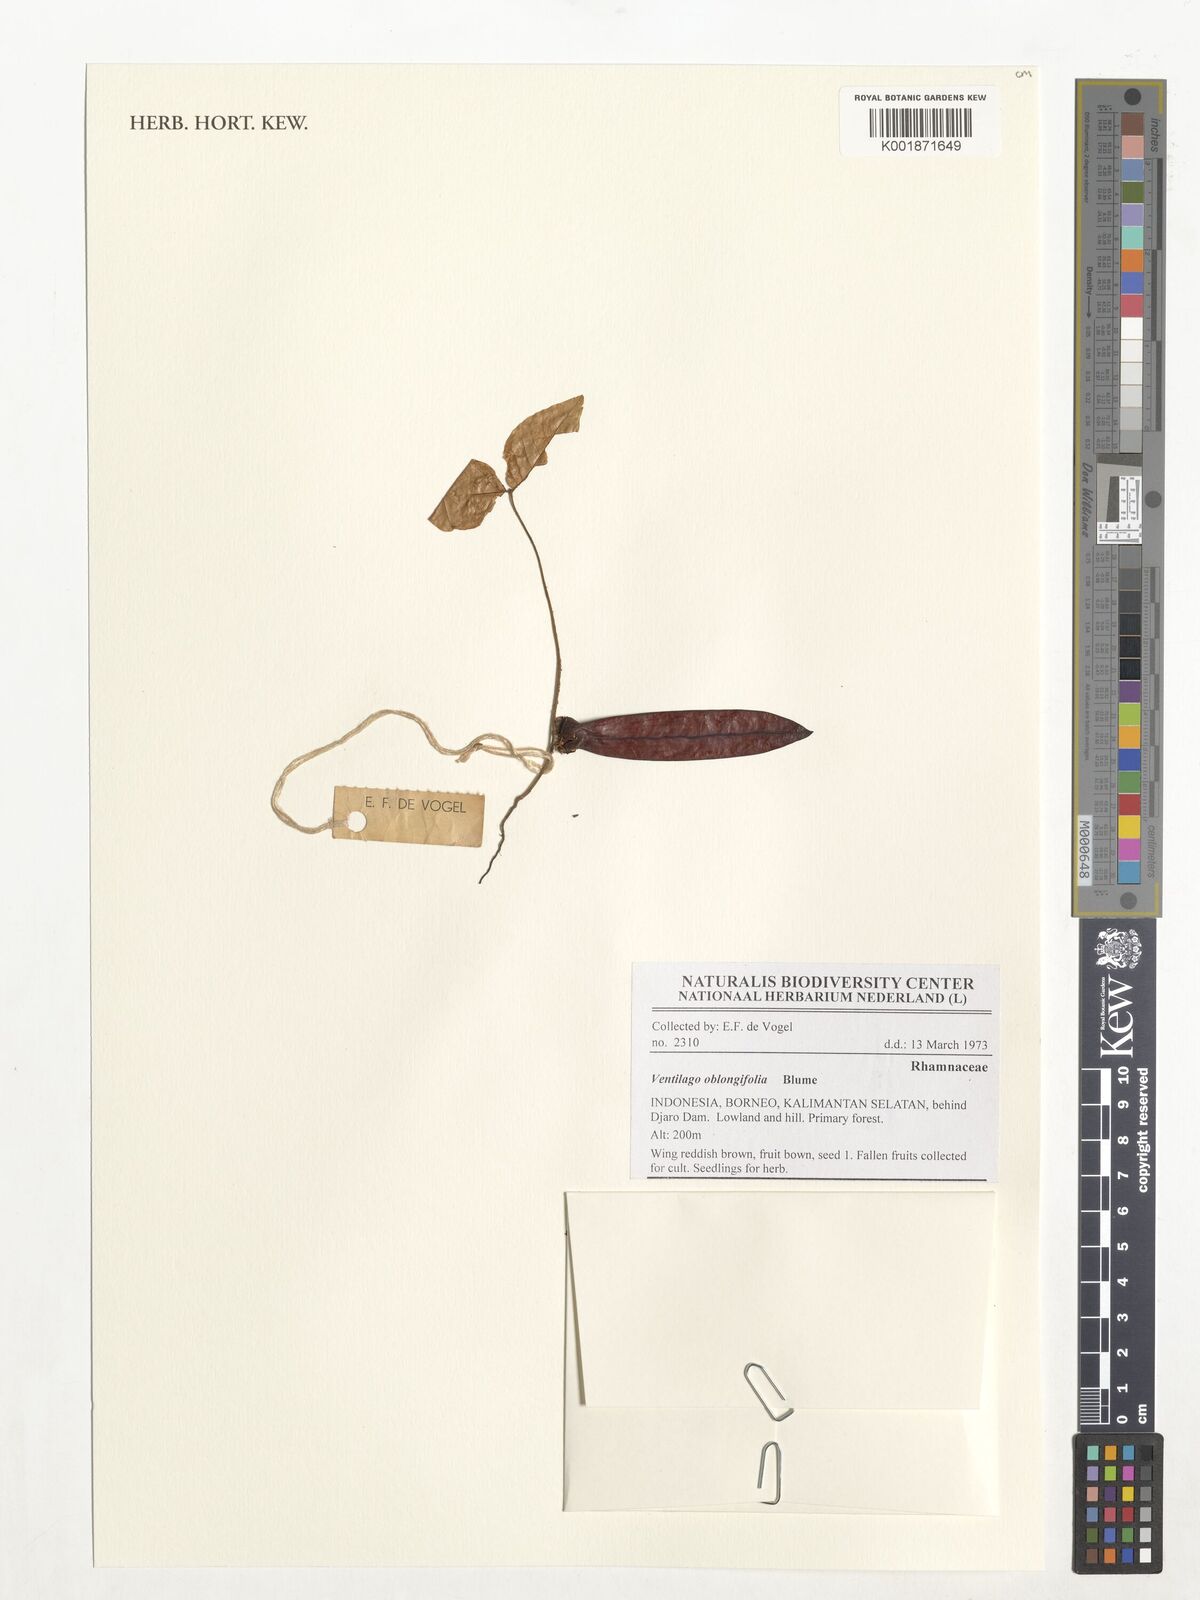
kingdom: Plantae
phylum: Tracheophyta
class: Magnoliopsida
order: Rosales
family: Rhamnaceae
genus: Smythea
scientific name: Smythea oblongifolia
